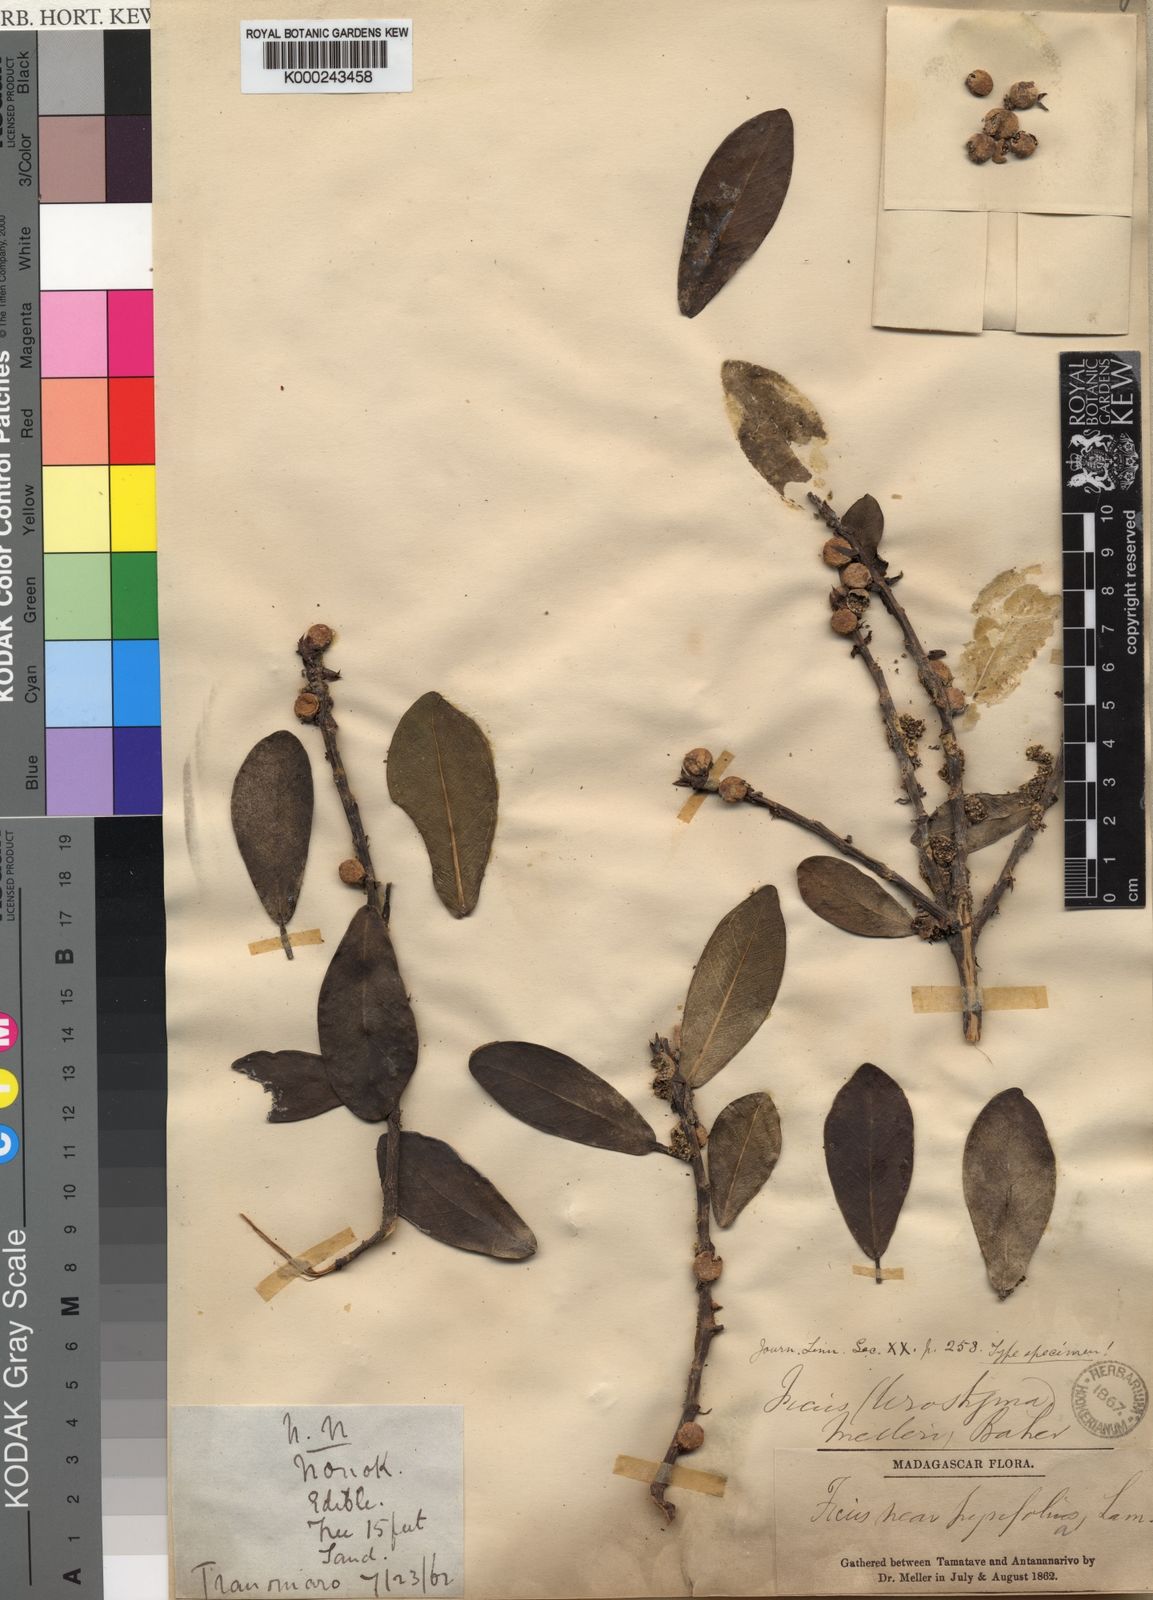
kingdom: Plantae
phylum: Tracheophyta
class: Magnoliopsida
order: Rosales
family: Moraceae
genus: Ficus
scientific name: Ficus reflexa
